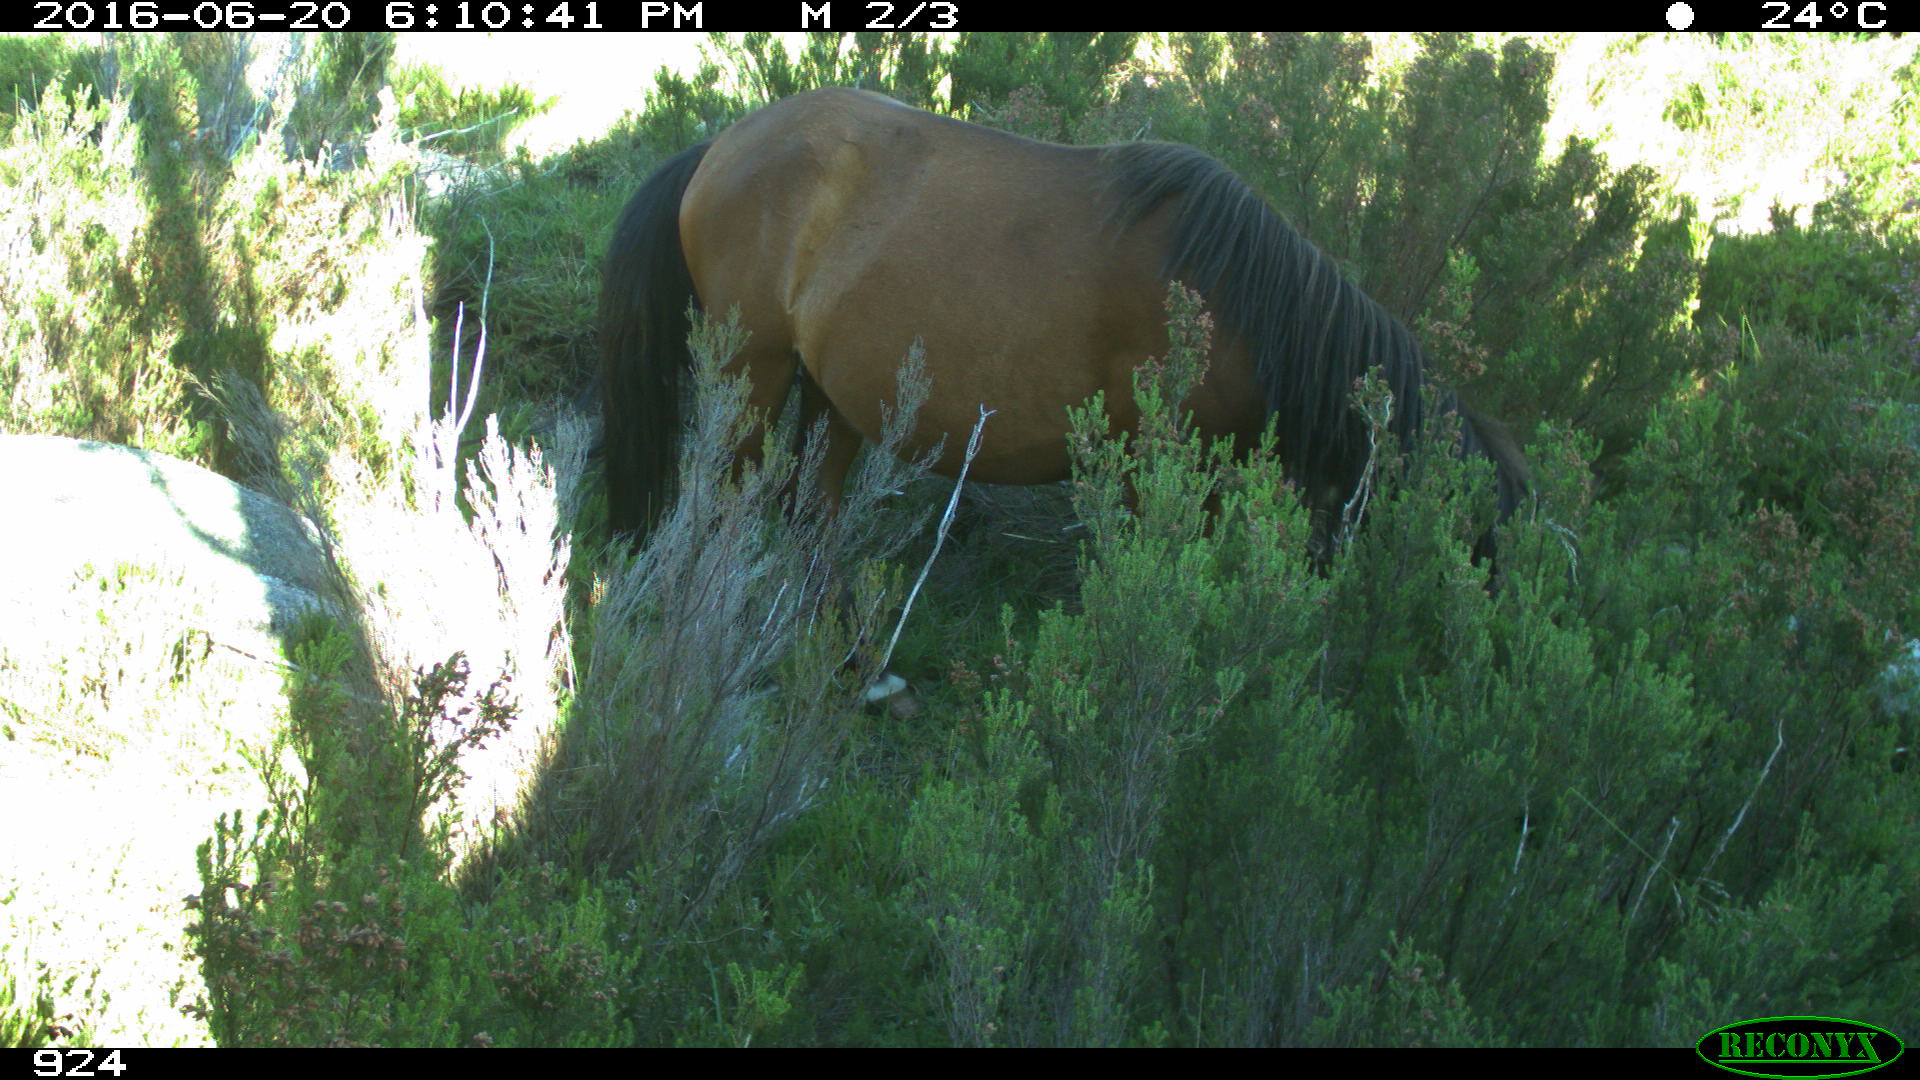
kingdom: Animalia
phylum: Chordata
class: Mammalia
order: Perissodactyla
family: Equidae
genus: Equus
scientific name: Equus caballus
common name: Horse
